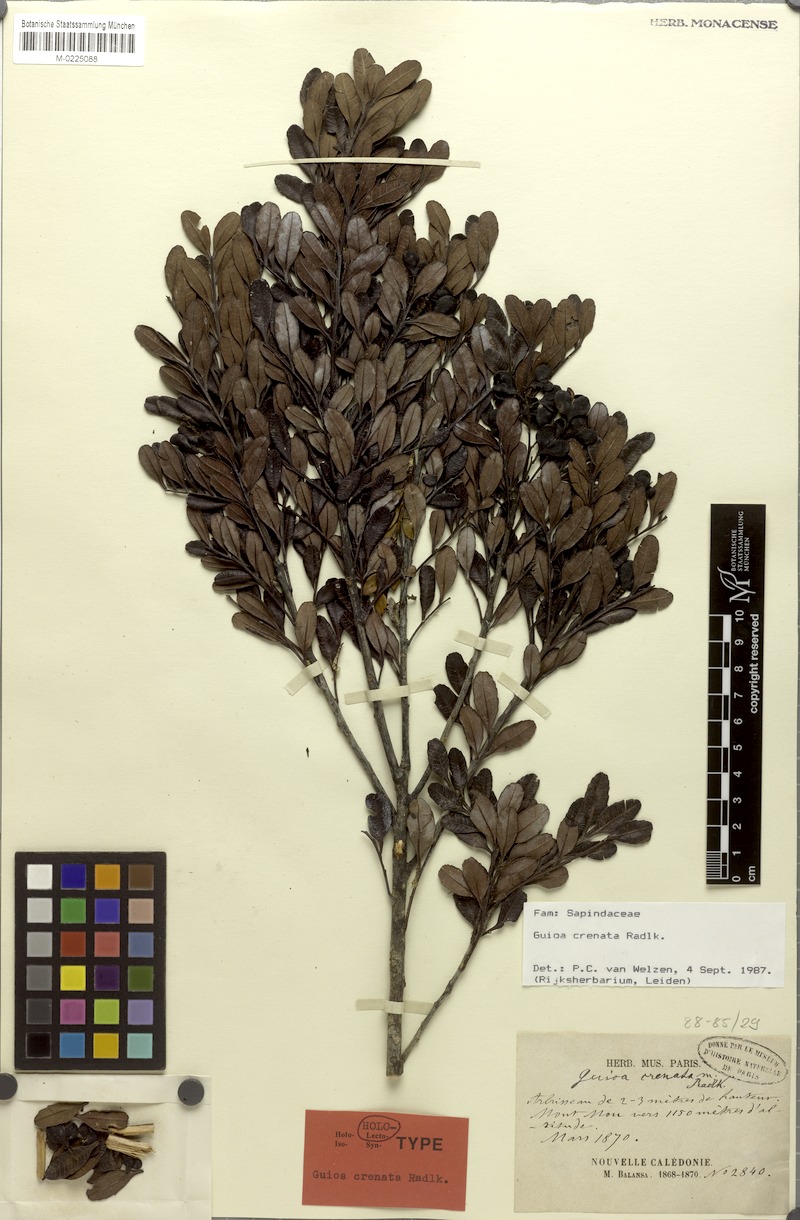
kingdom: Plantae
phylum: Tracheophyta
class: Magnoliopsida
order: Sapindales
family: Sapindaceae
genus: Guioa
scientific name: Guioa crenata
